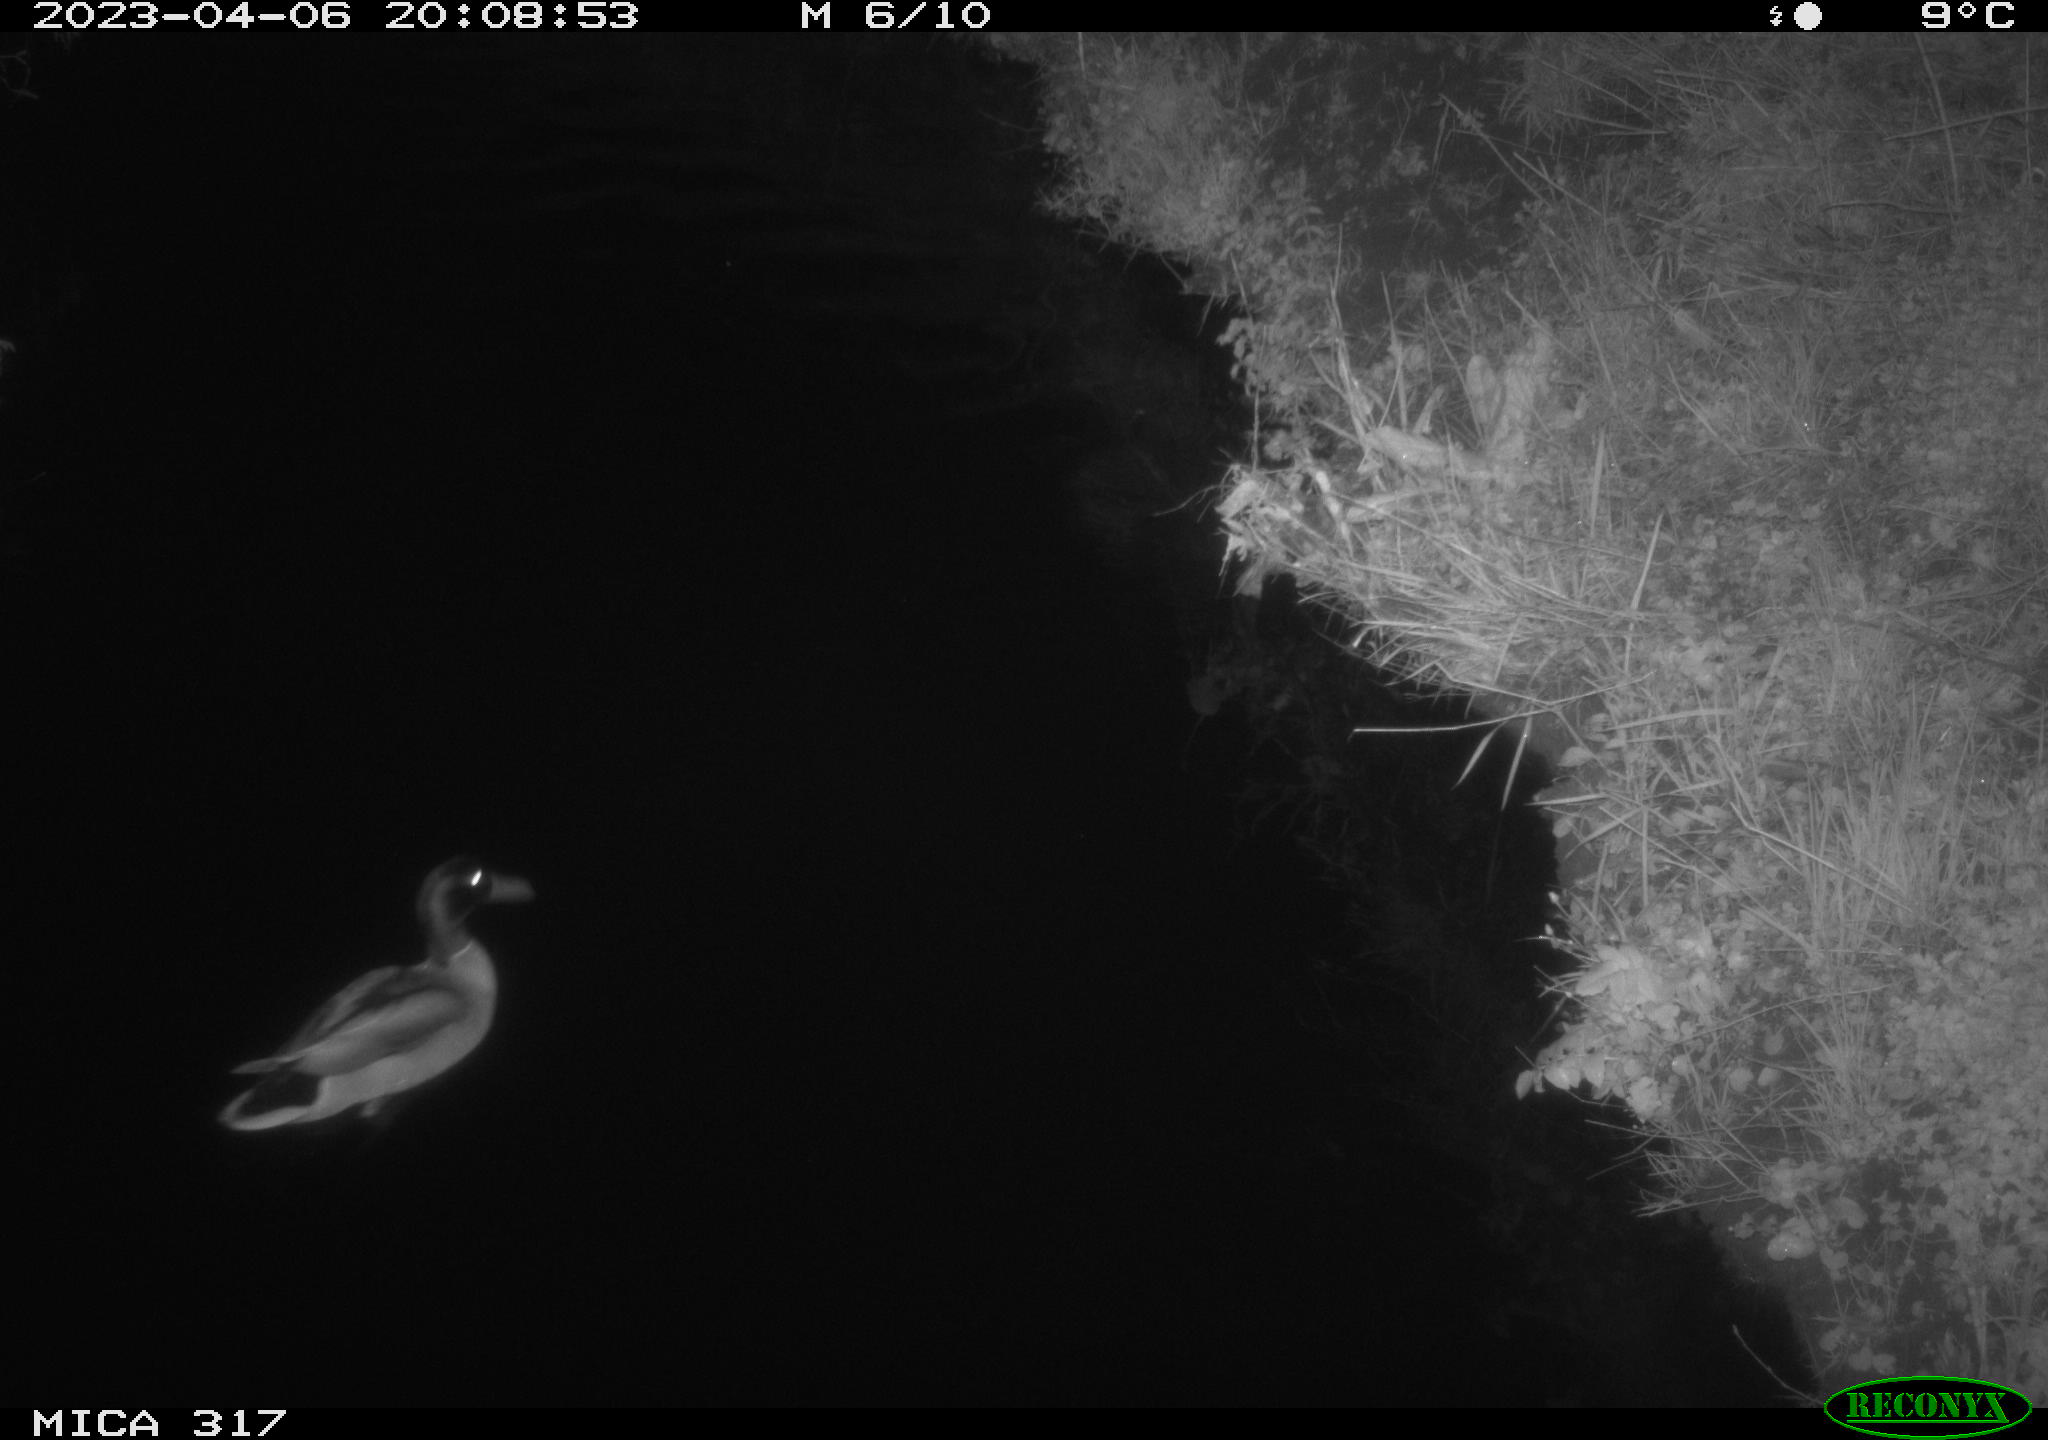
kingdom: Animalia
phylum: Chordata
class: Aves
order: Anseriformes
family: Anatidae
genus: Anas
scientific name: Anas
